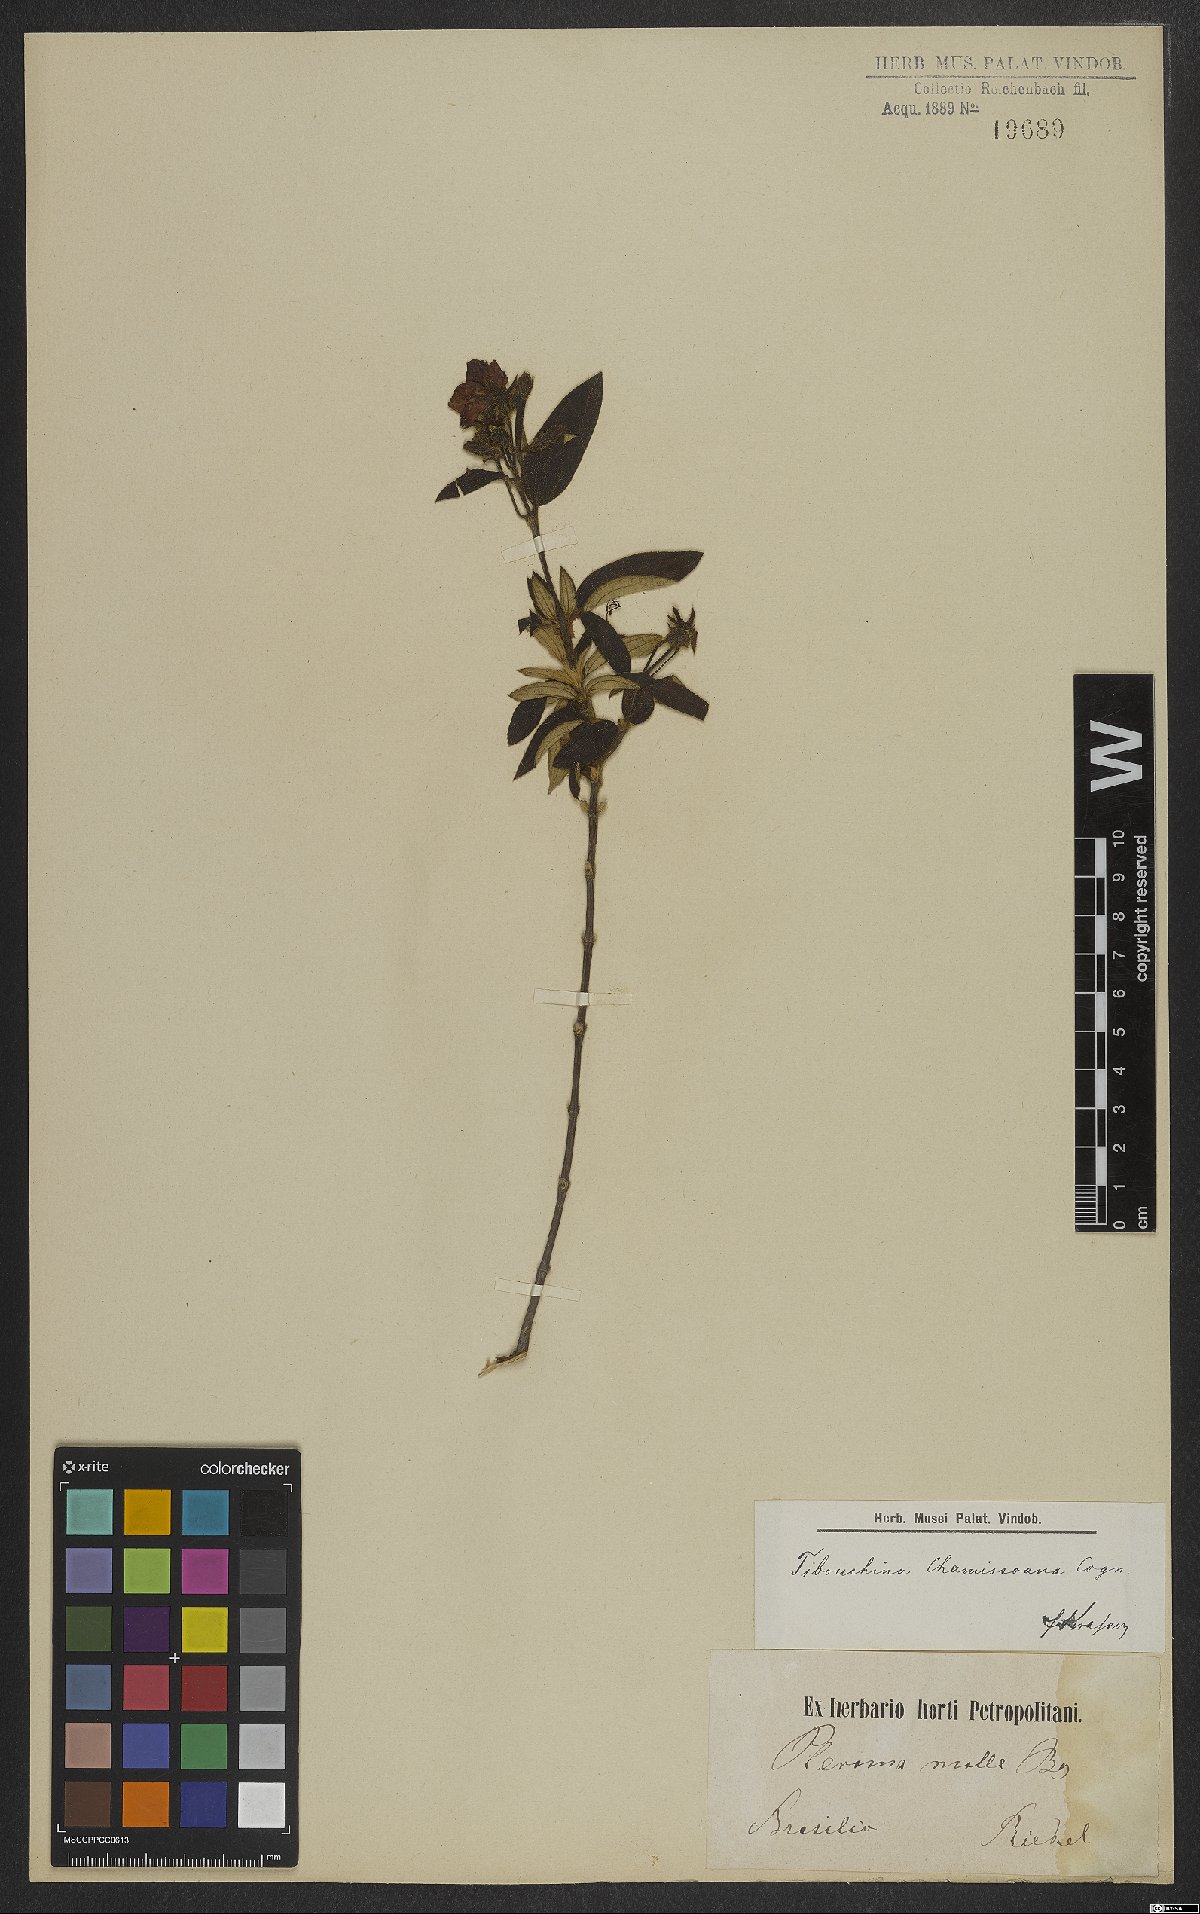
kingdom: Plantae
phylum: Tracheophyta
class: Magnoliopsida
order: Myrtales
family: Melastomataceae
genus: Pleroma
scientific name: Pleroma molle
